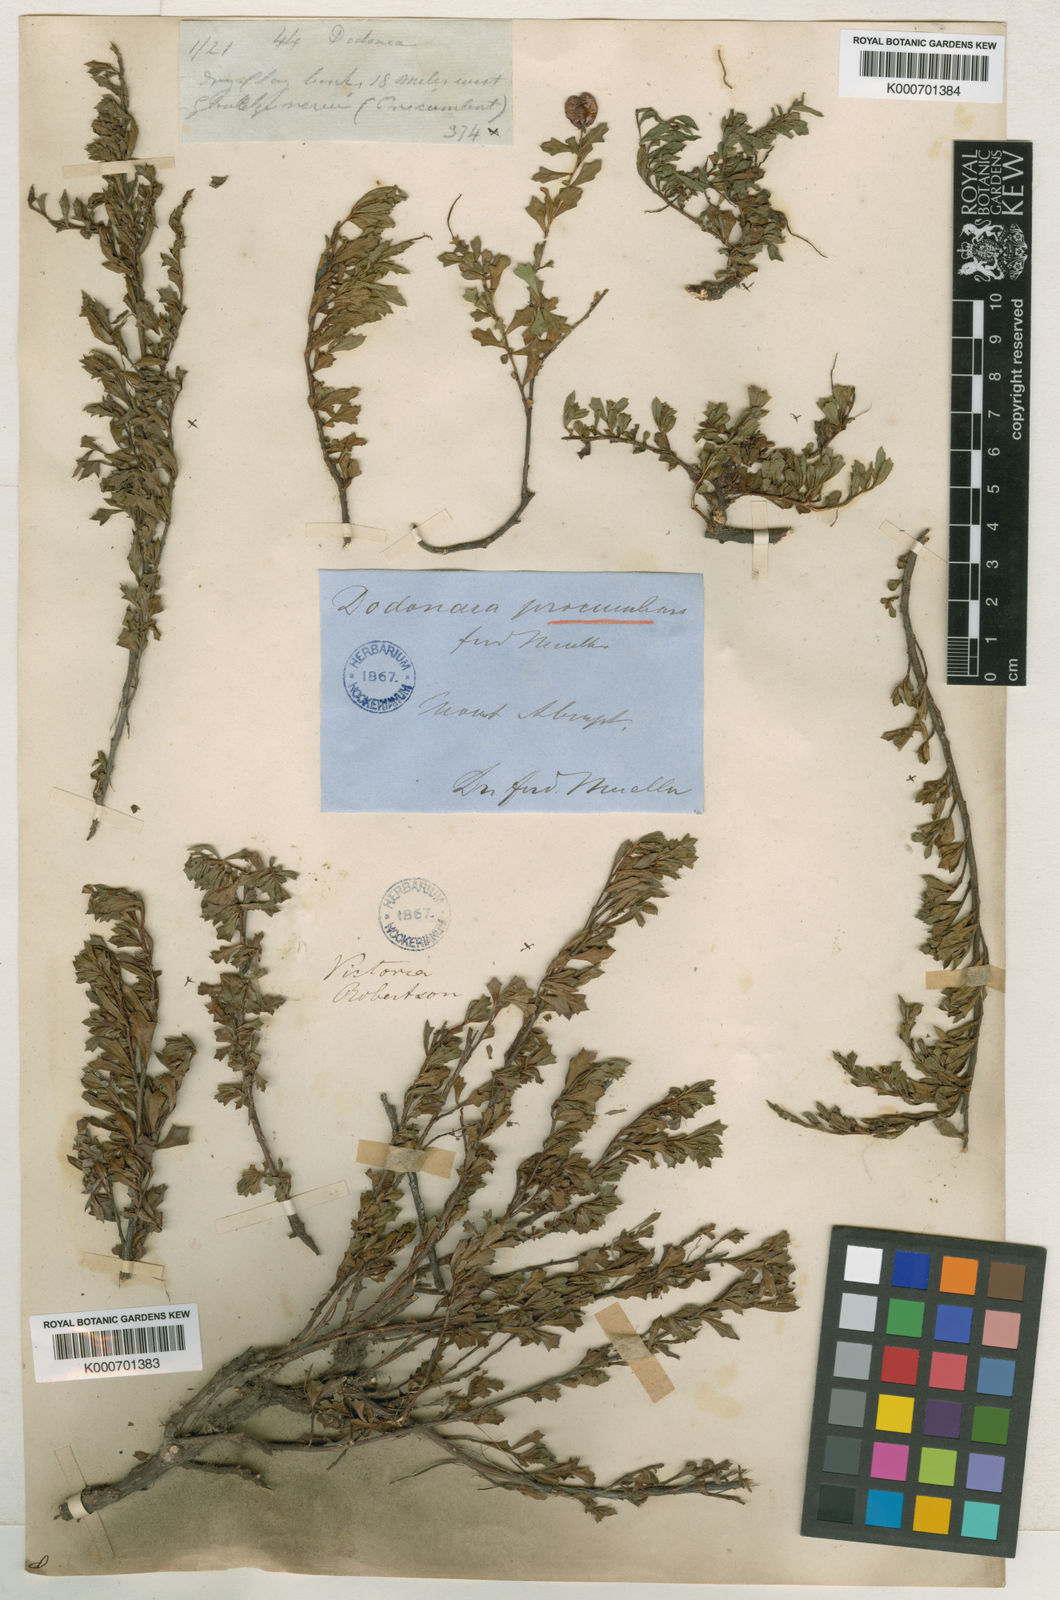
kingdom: Plantae
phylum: Tracheophyta
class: Magnoliopsida
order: Sapindales
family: Sapindaceae
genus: Dodonaea
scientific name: Dodonaea procumbens
